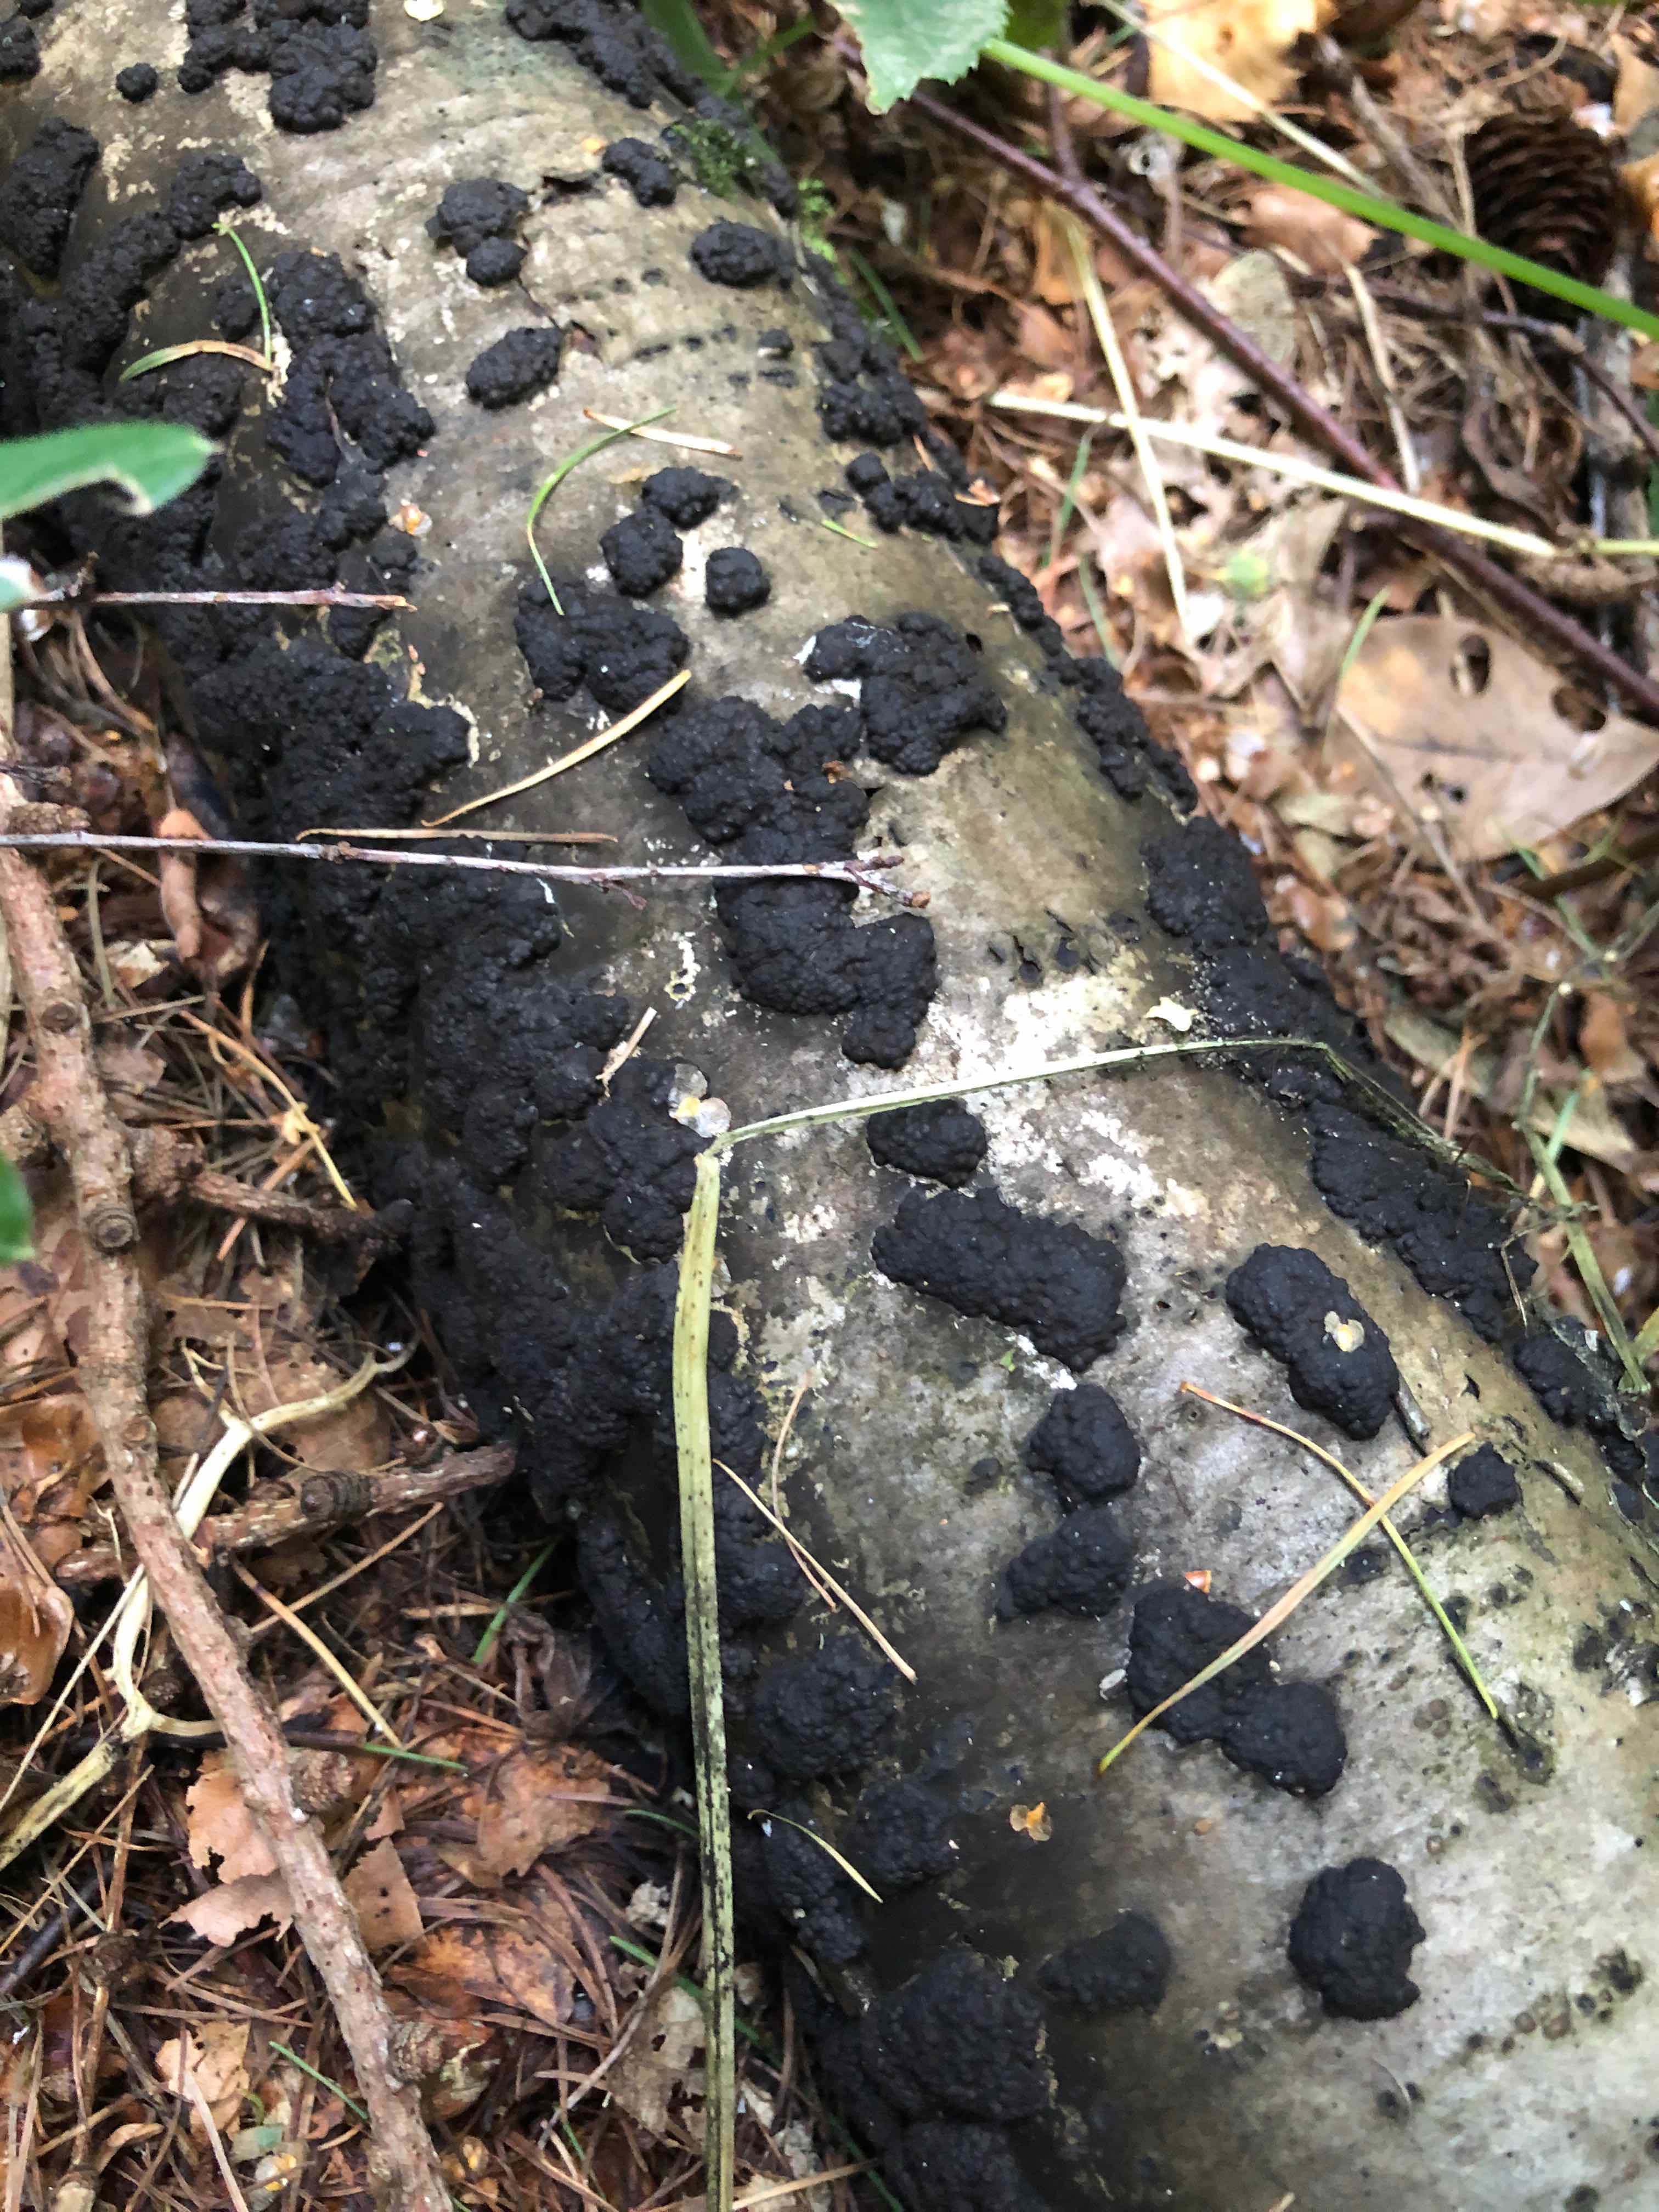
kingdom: Fungi
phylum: Ascomycota
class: Sordariomycetes
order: Xylariales
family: Hypoxylaceae
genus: Jackrogersella
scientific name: Jackrogersella multiformis
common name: foranderlig kulbær
